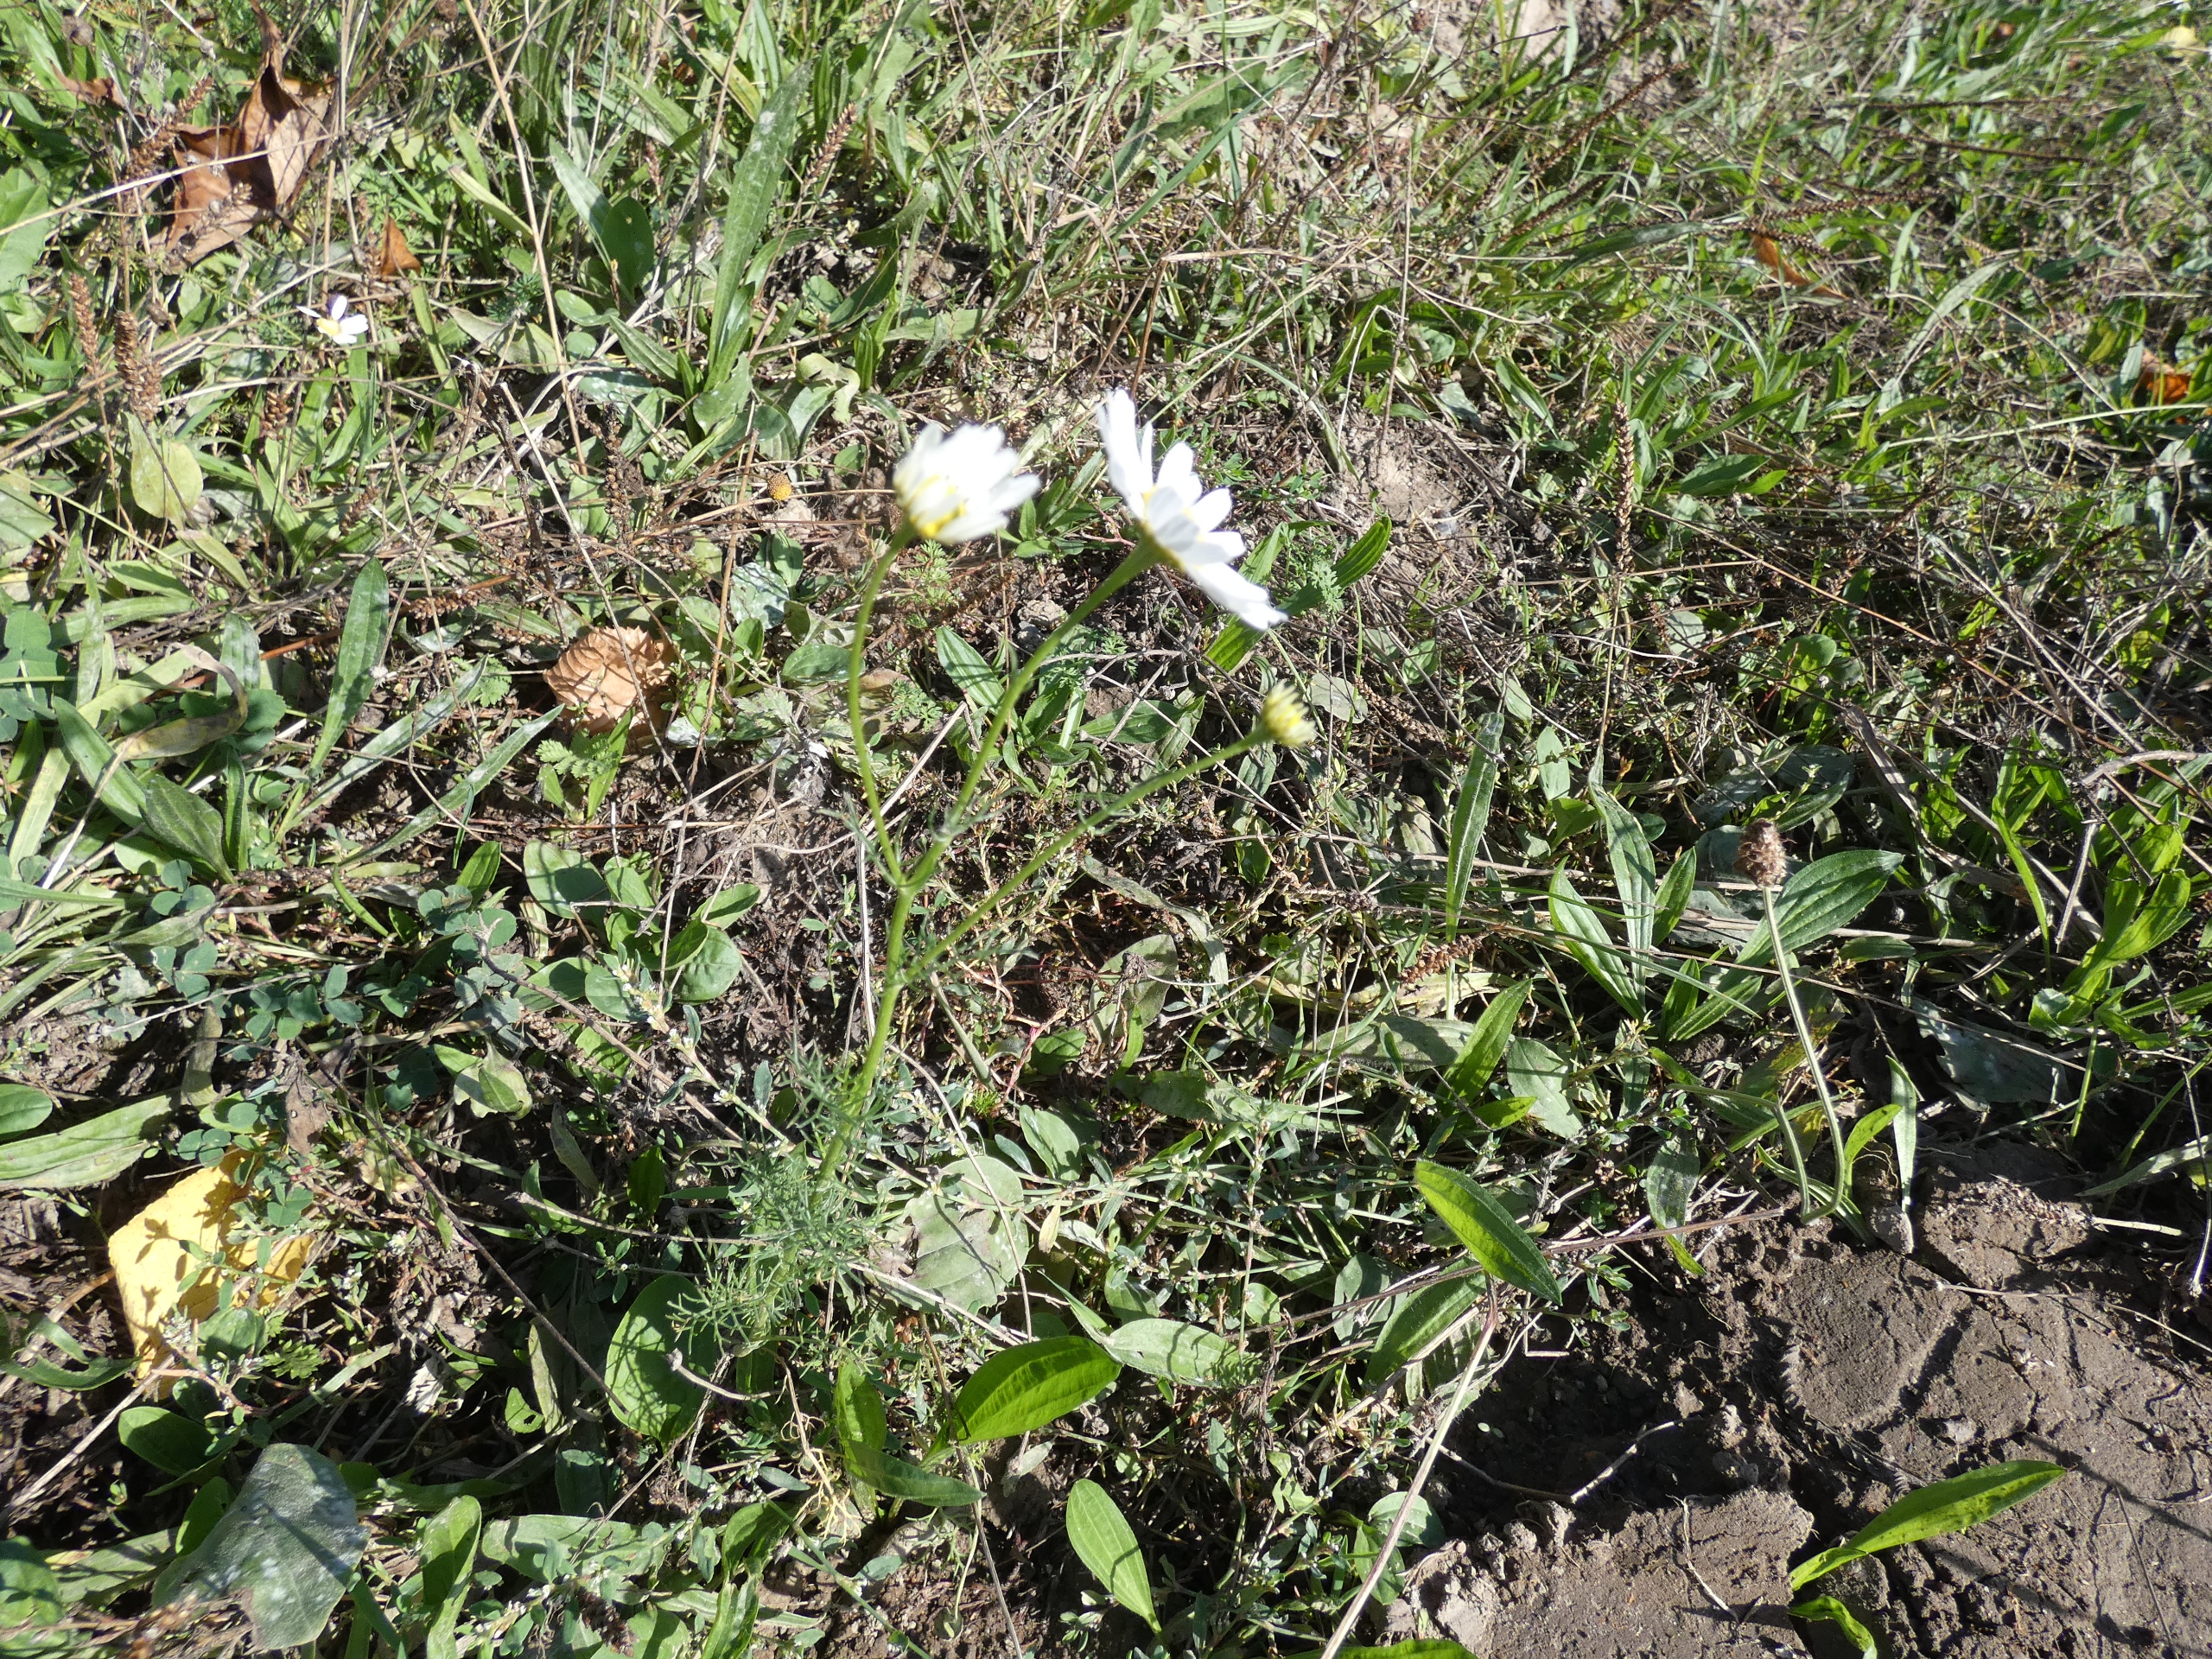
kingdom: Plantae
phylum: Tracheophyta
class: Magnoliopsida
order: Asterales
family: Asteraceae
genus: Tripleurospermum
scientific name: Tripleurospermum inodorum
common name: Lugtløs kamille
